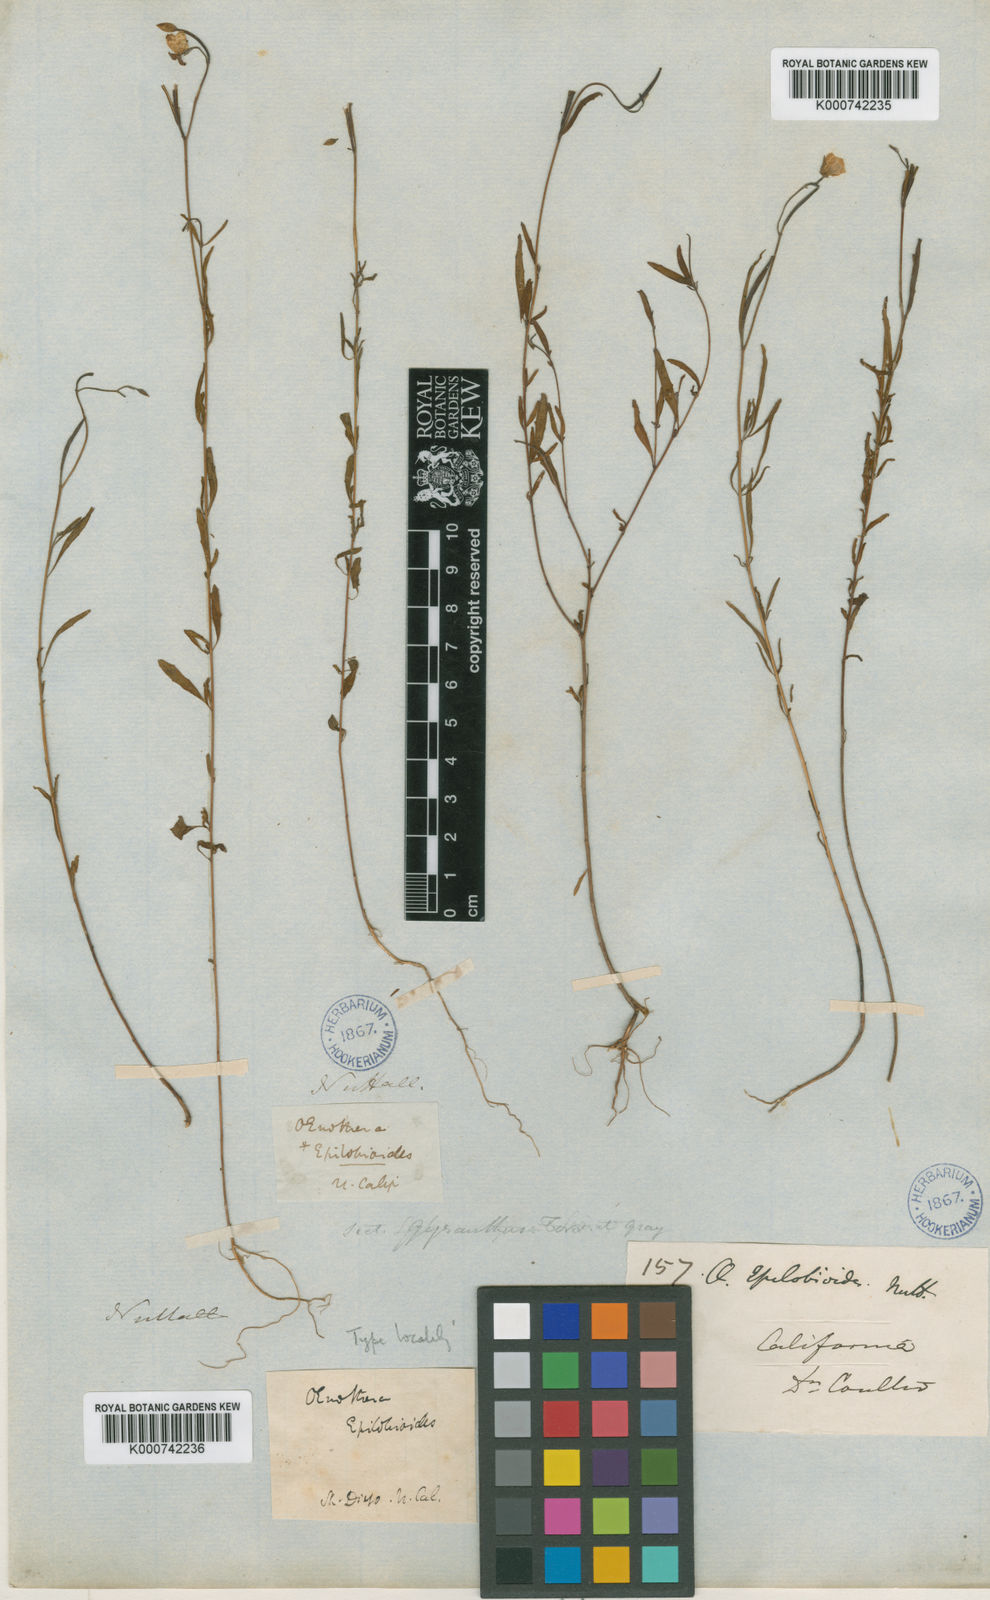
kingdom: Plantae
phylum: Tracheophyta
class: Magnoliopsida
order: Myrtales
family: Onagraceae
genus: Clarkia
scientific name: Clarkia epilobioides
